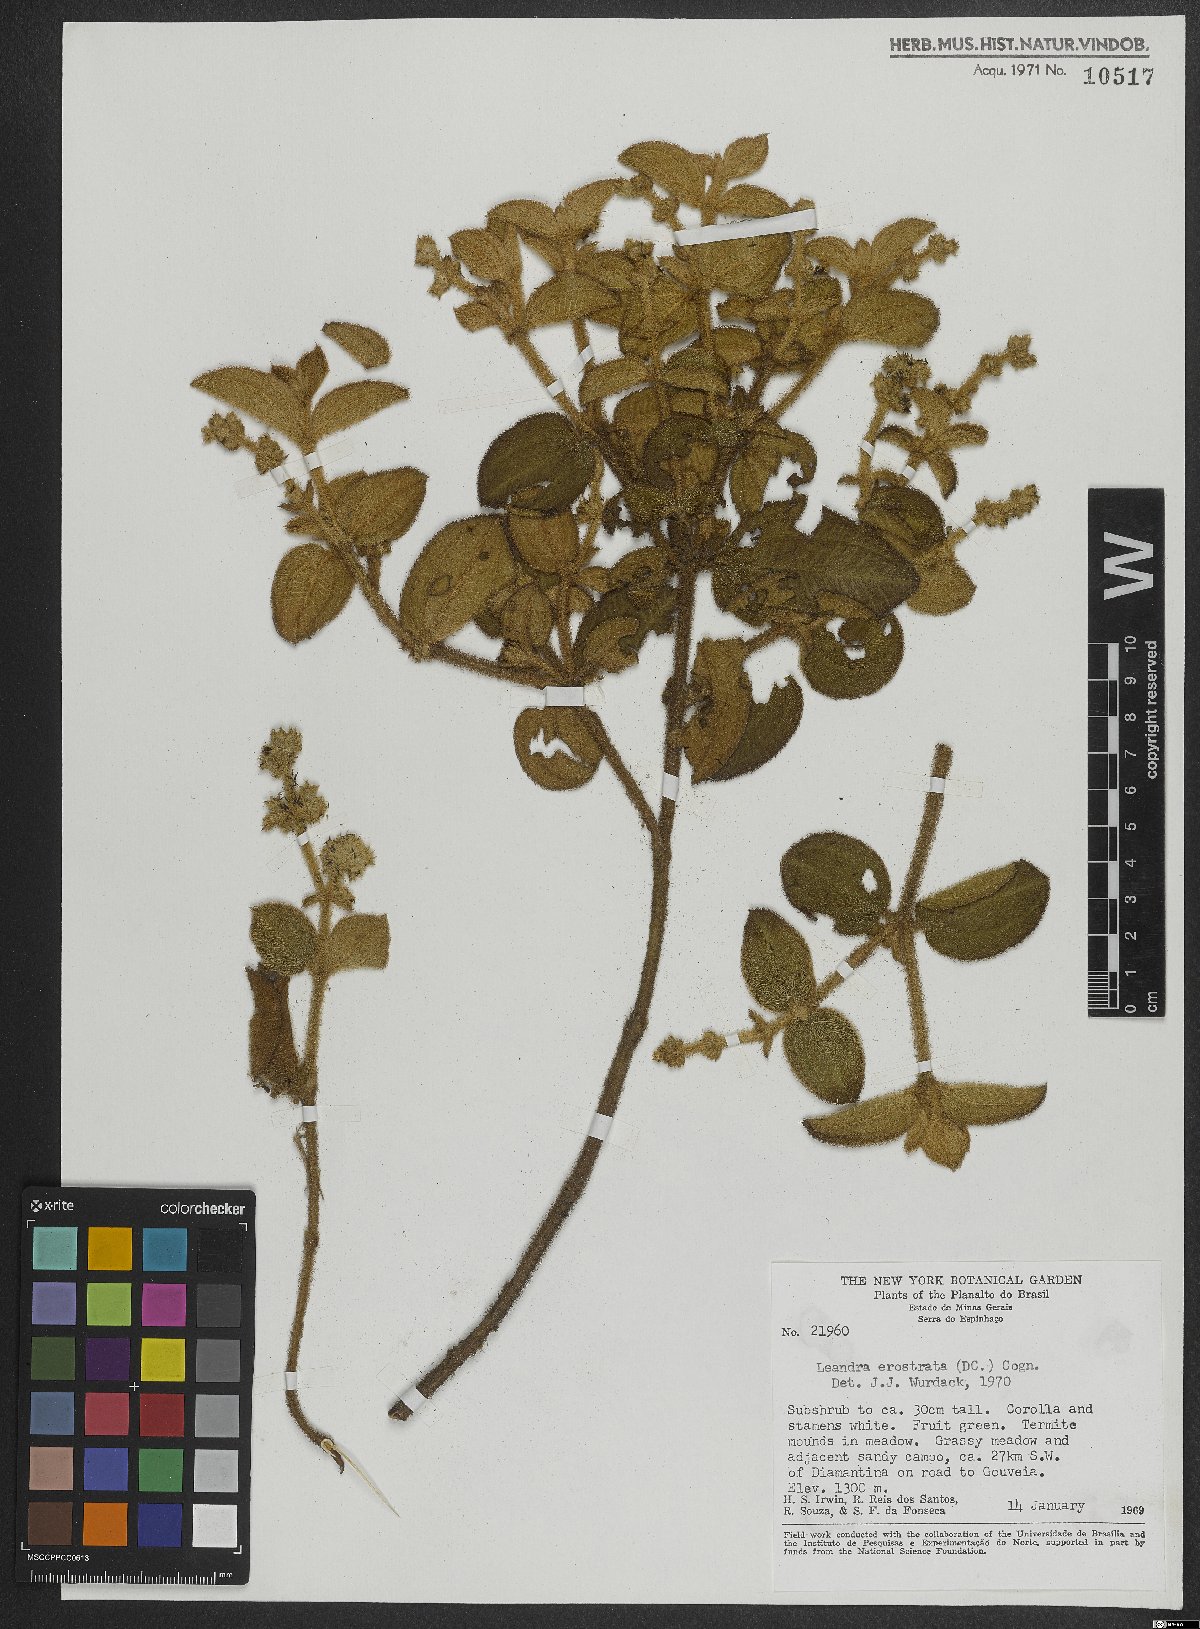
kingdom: Plantae
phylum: Tracheophyta
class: Magnoliopsida
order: Myrtales
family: Melastomataceae
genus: Miconia
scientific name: Miconia erostrata
